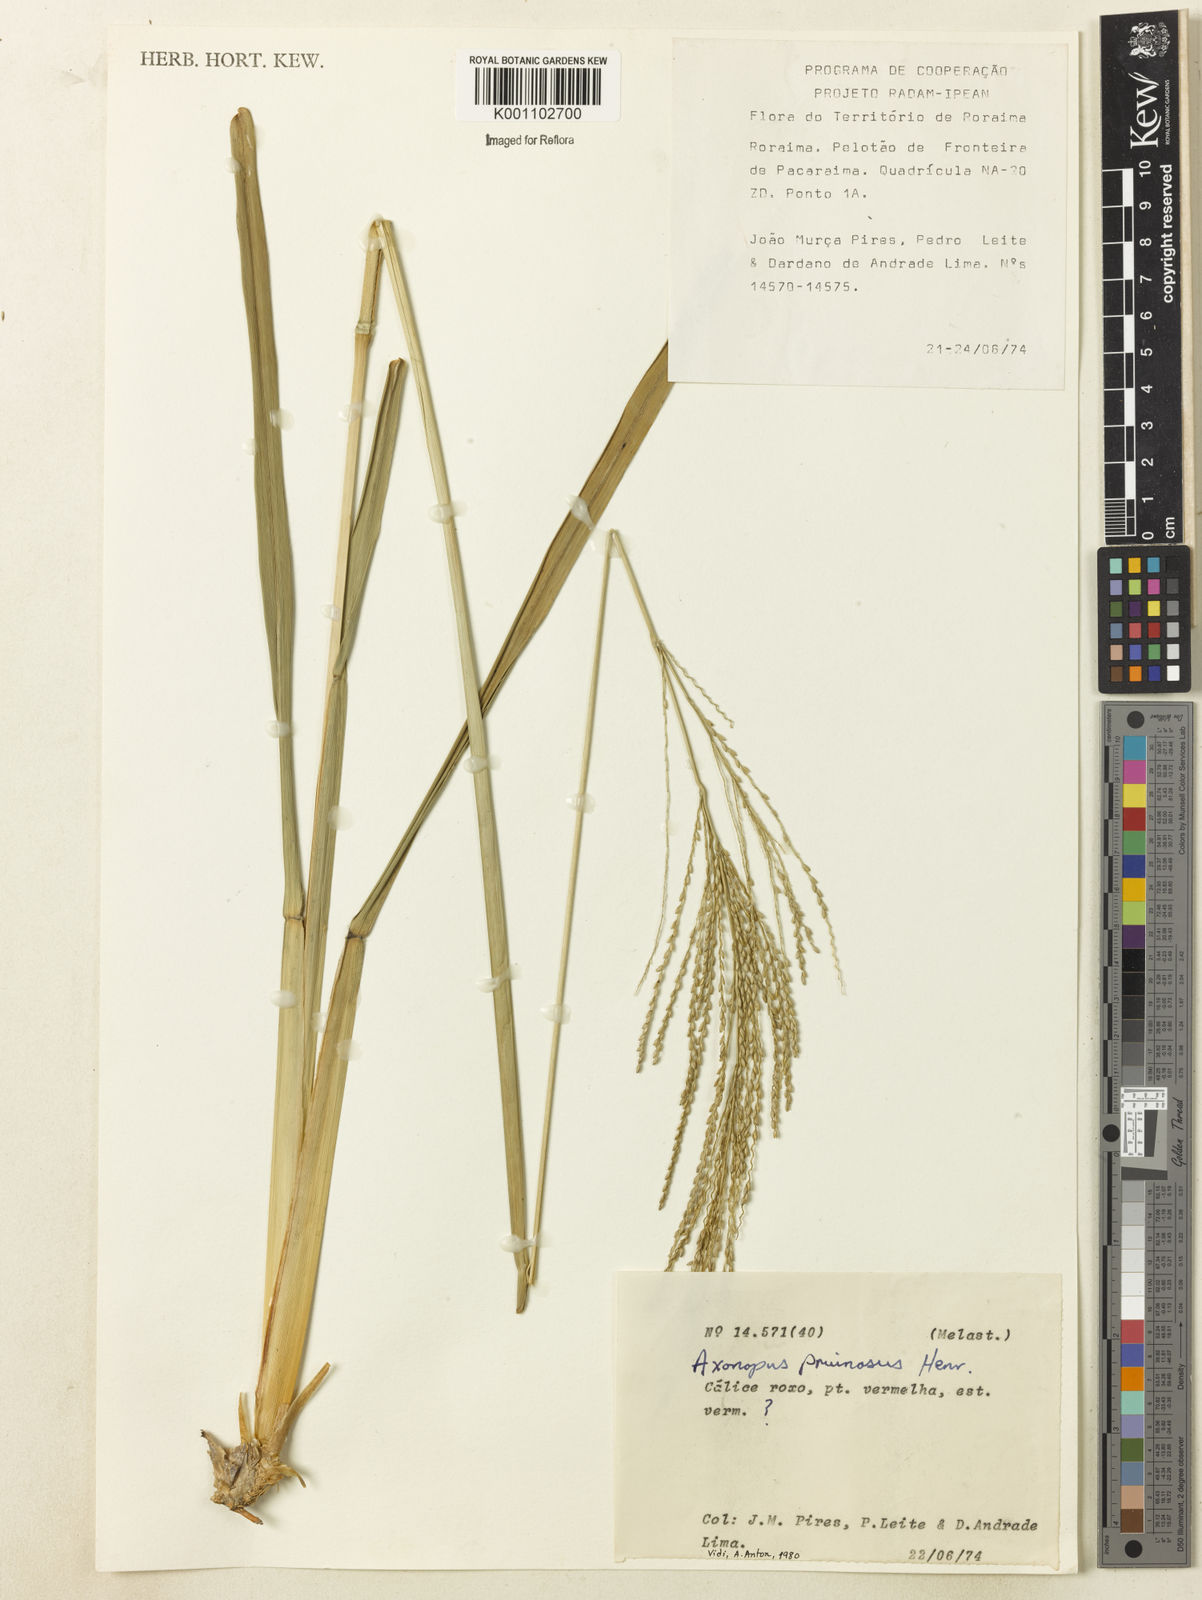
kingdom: Plantae
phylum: Tracheophyta
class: Liliopsida
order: Poales
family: Poaceae
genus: Axonopus
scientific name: Axonopus anceps
